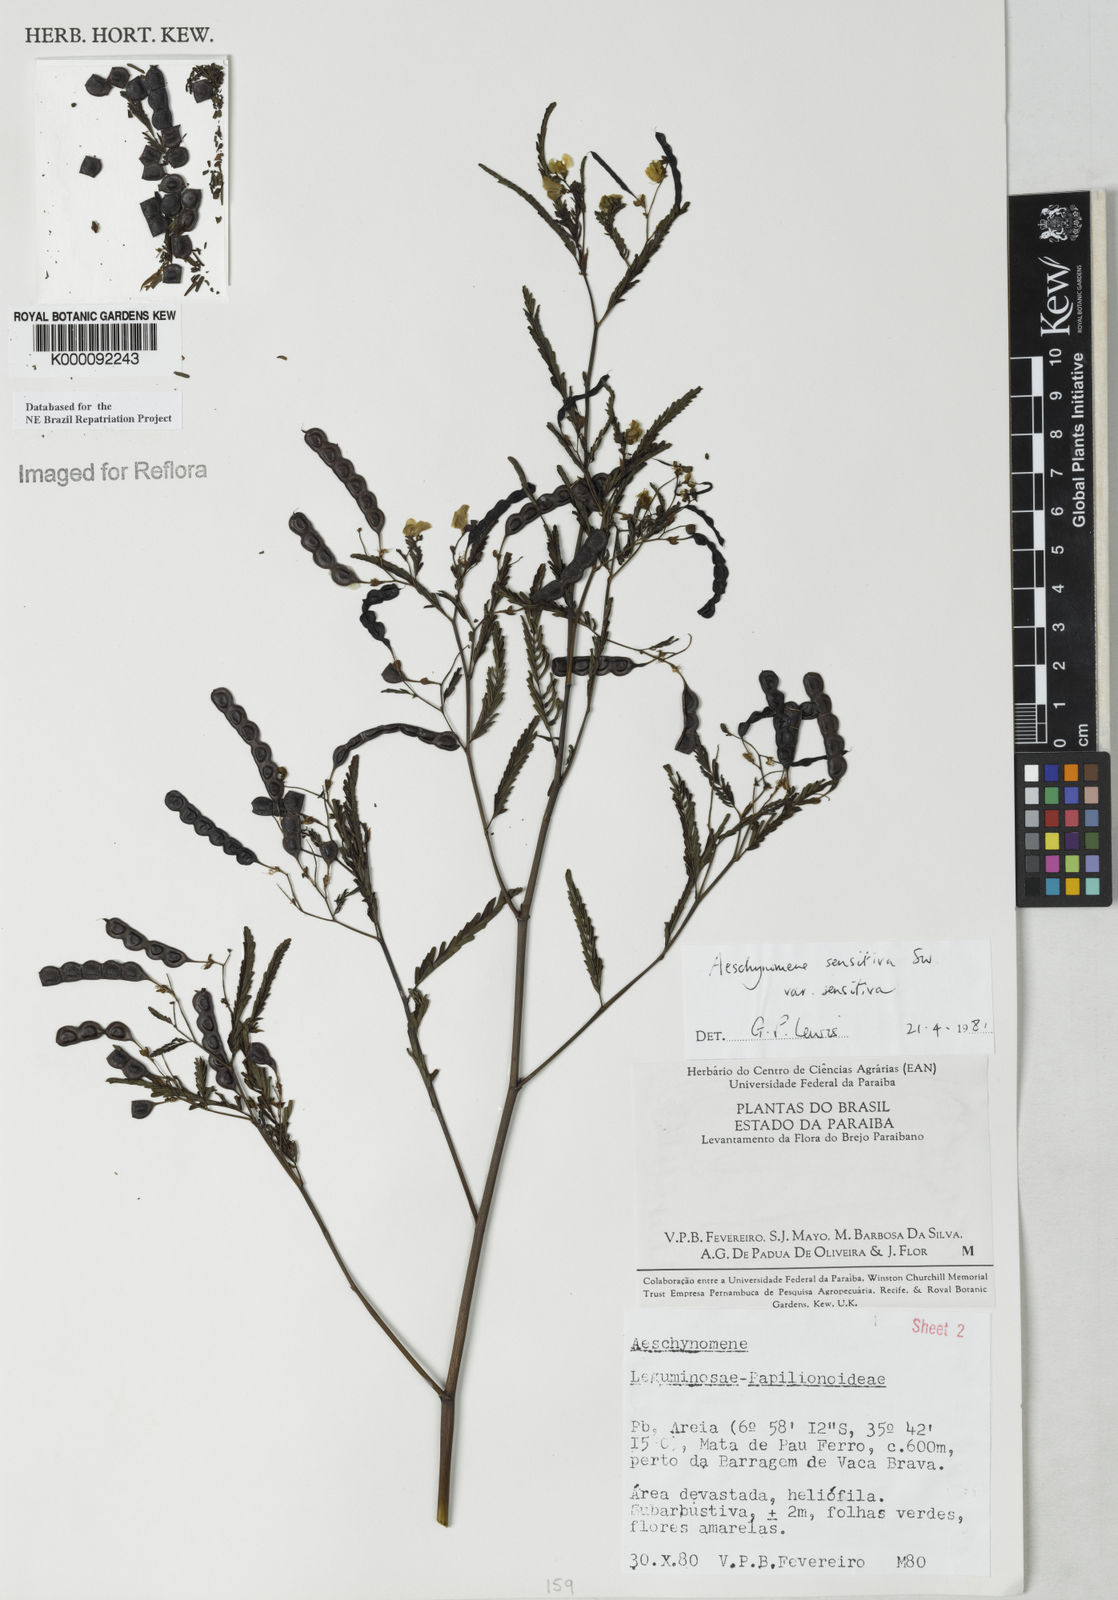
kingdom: Plantae
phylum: Tracheophyta
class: Magnoliopsida
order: Fabales
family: Fabaceae
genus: Aeschynomene
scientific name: Aeschynomene sensitiva
